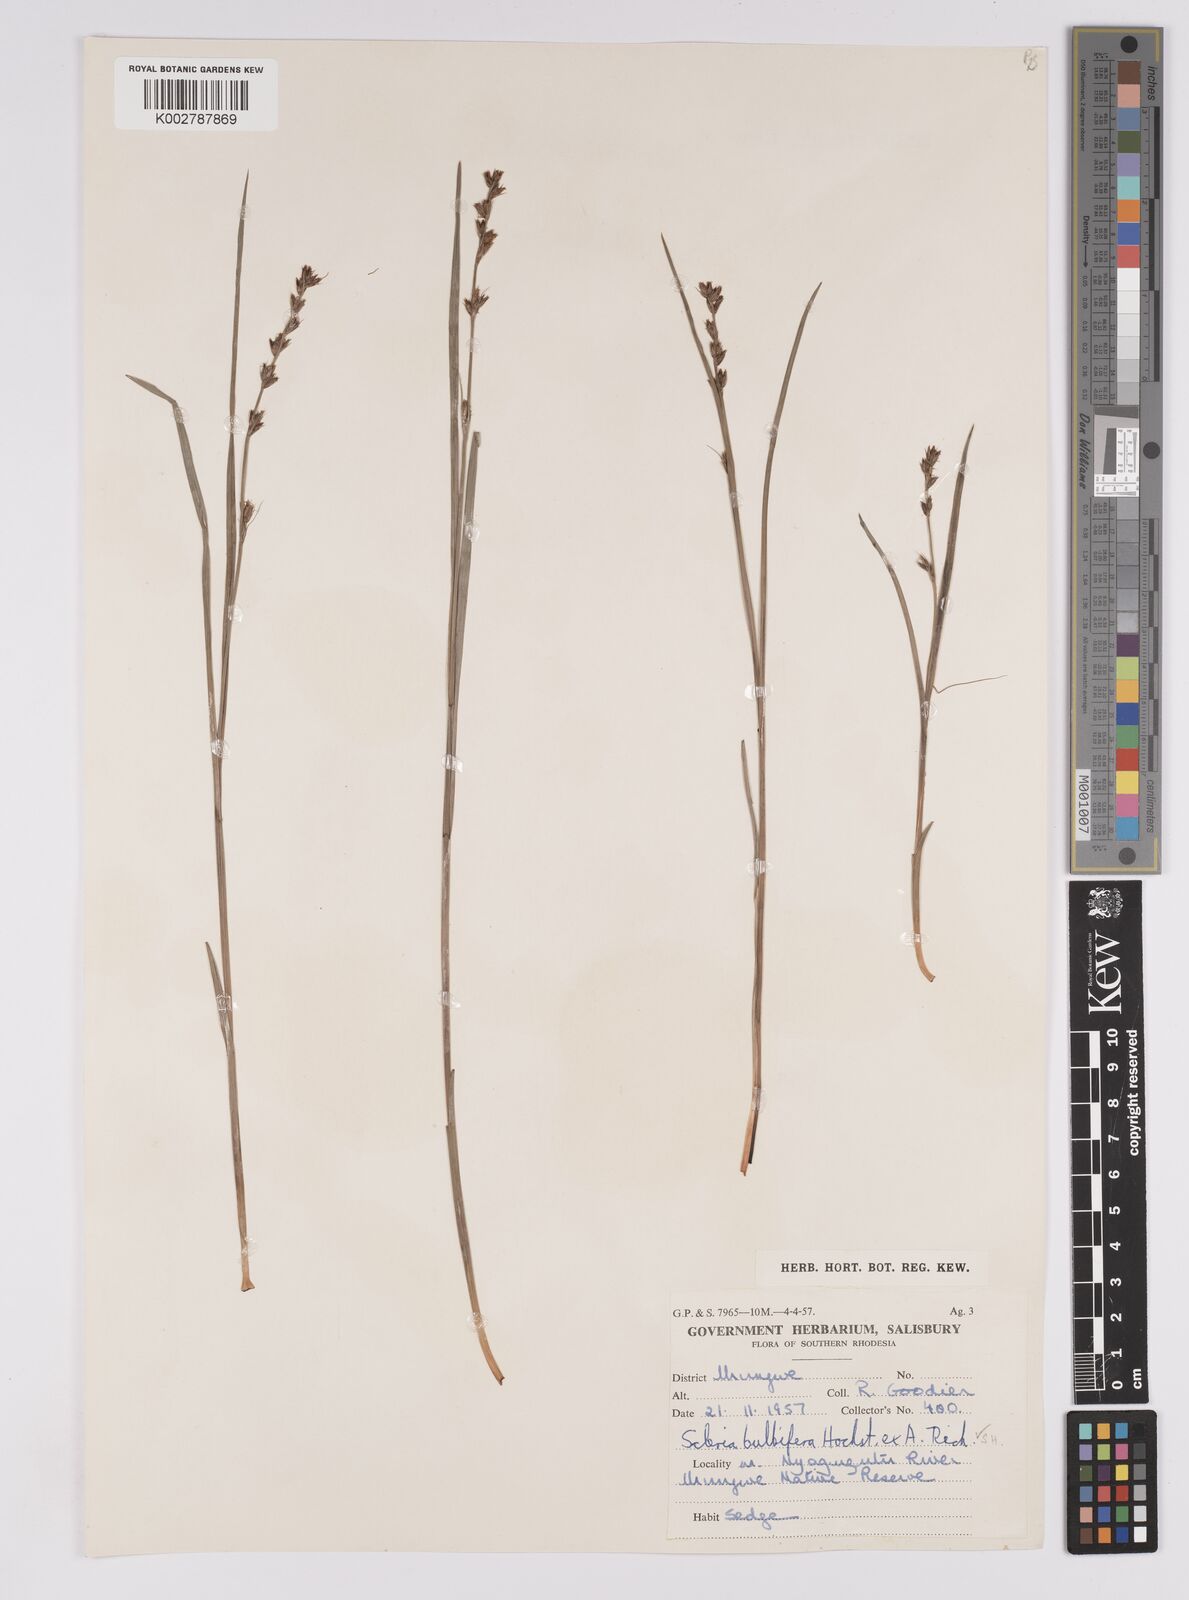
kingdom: Plantae
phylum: Tracheophyta
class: Liliopsida
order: Poales
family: Cyperaceae
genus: Scleria
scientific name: Scleria bulbifera
